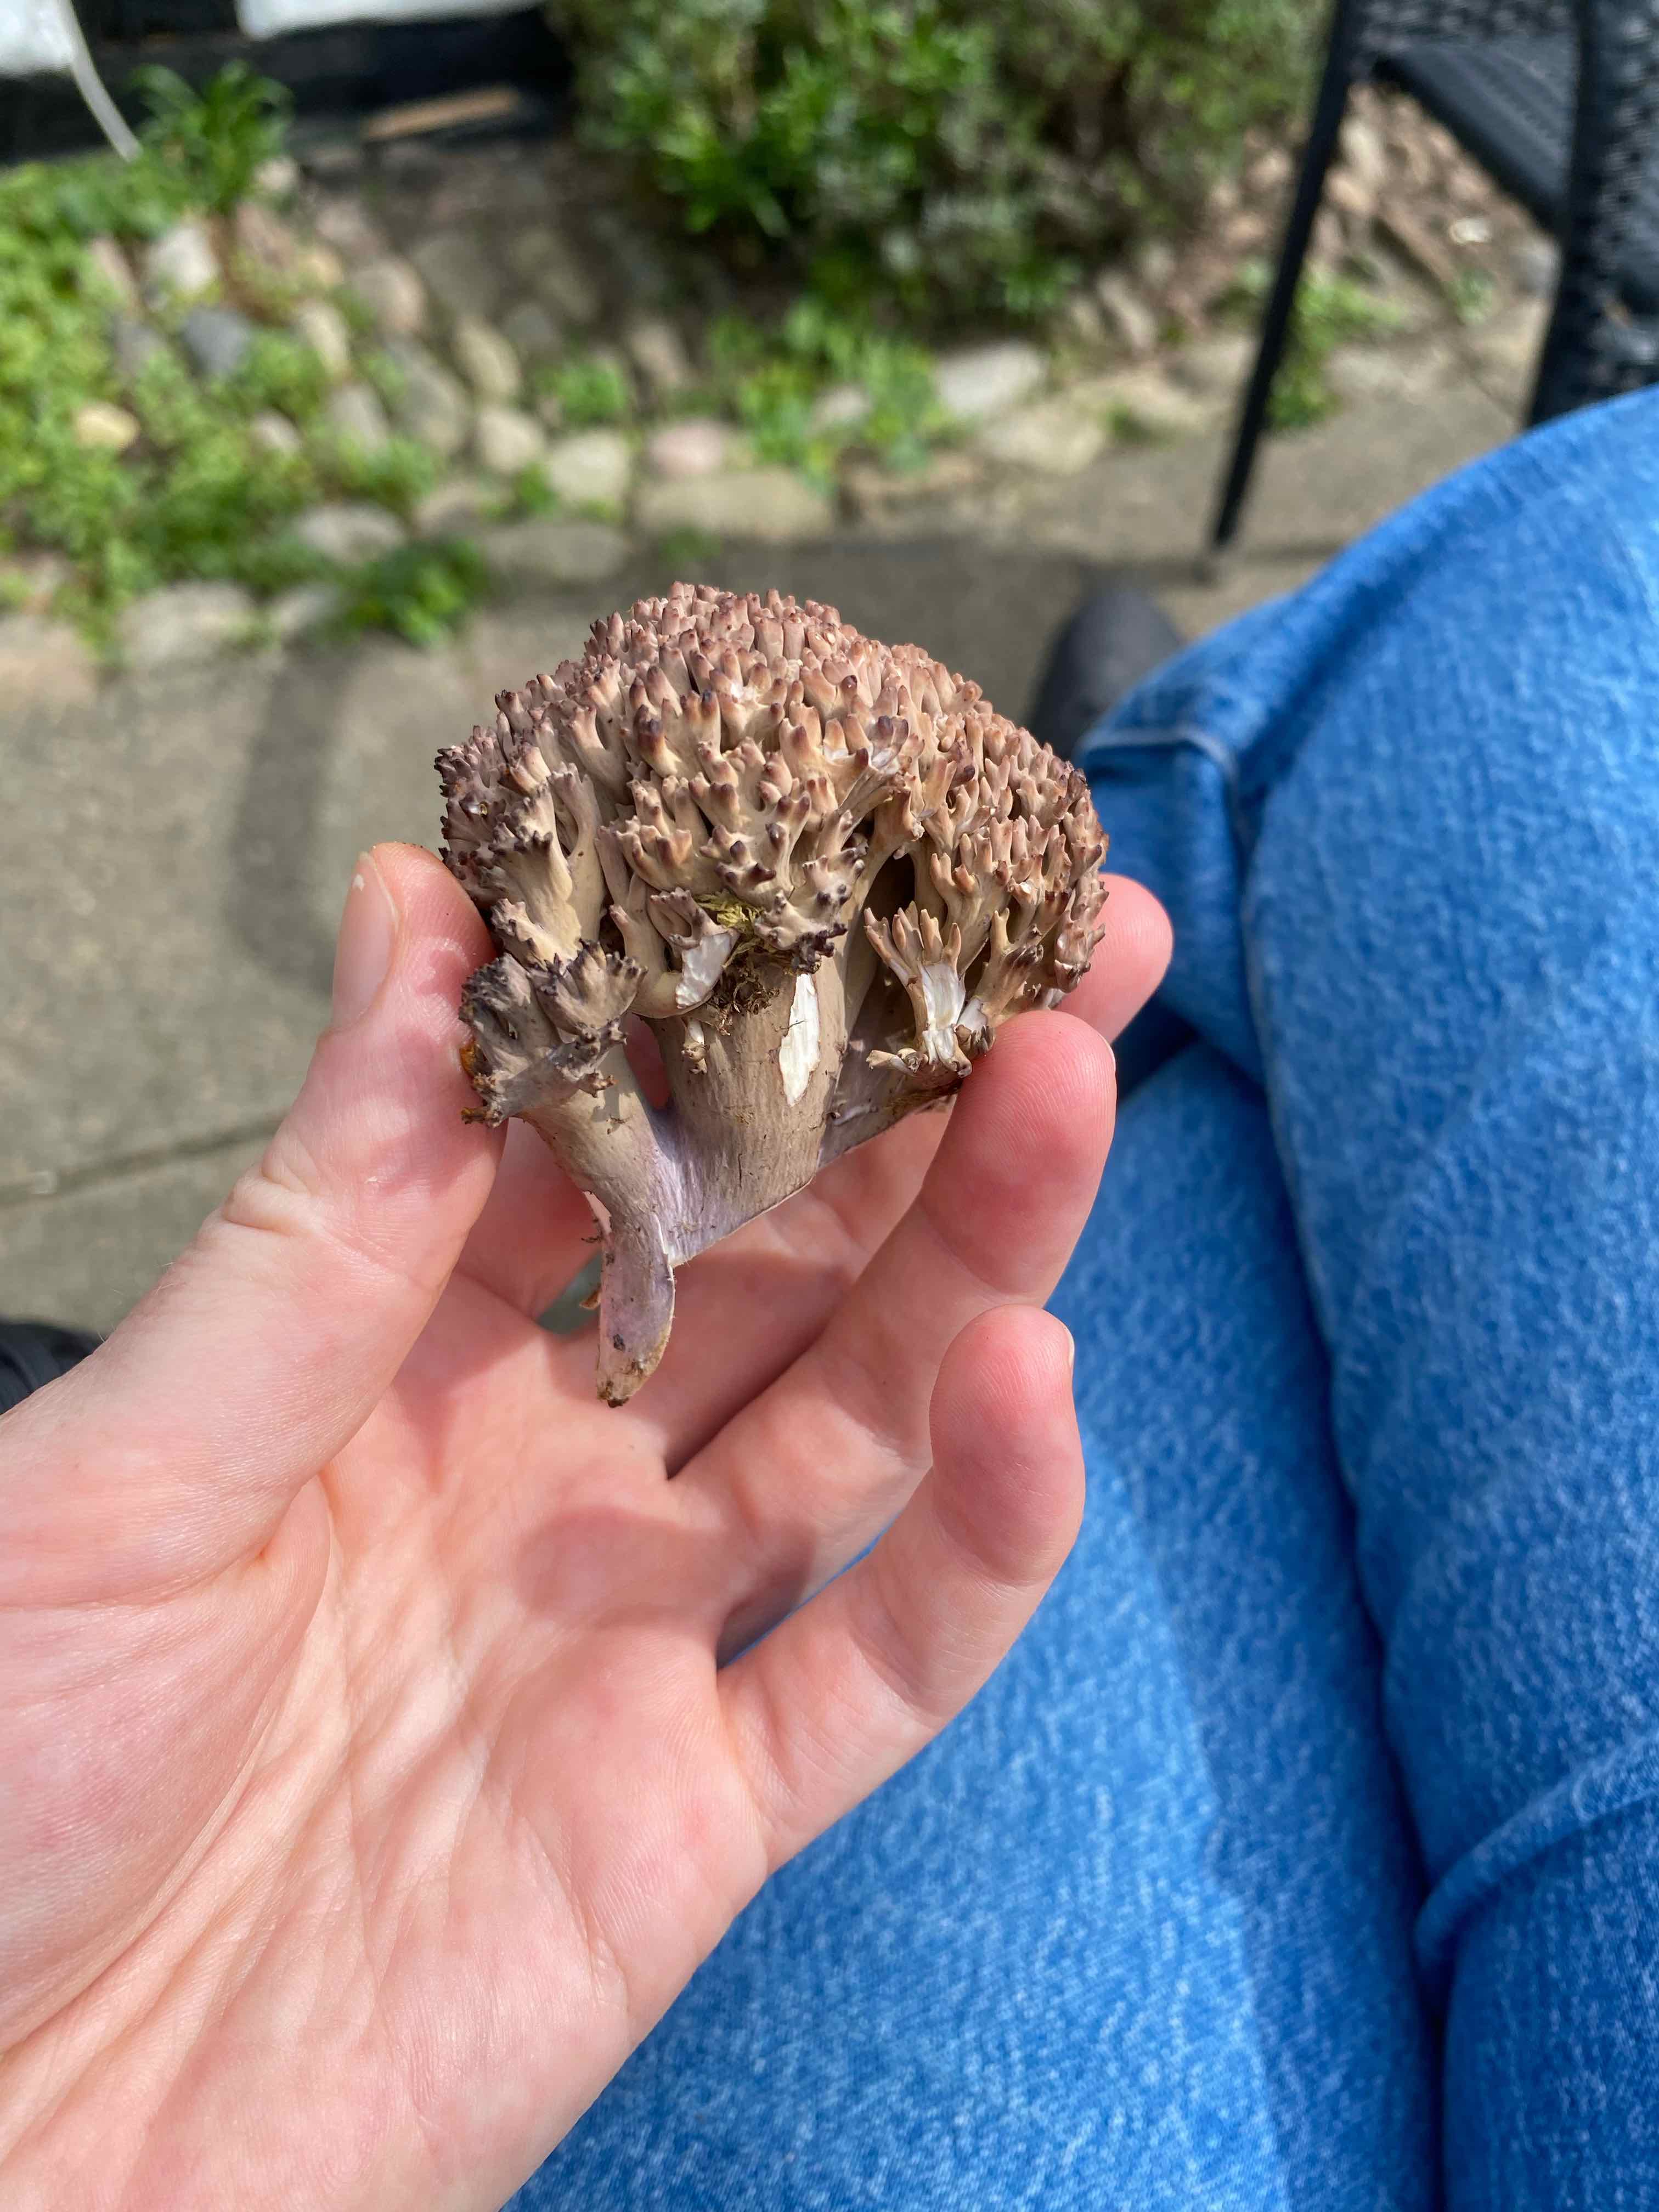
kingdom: Fungi
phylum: Basidiomycota
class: Agaricomycetes
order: Gomphales
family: Gomphaceae
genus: Ramaria
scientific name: Ramaria fumigata
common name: violet koralsvamp
